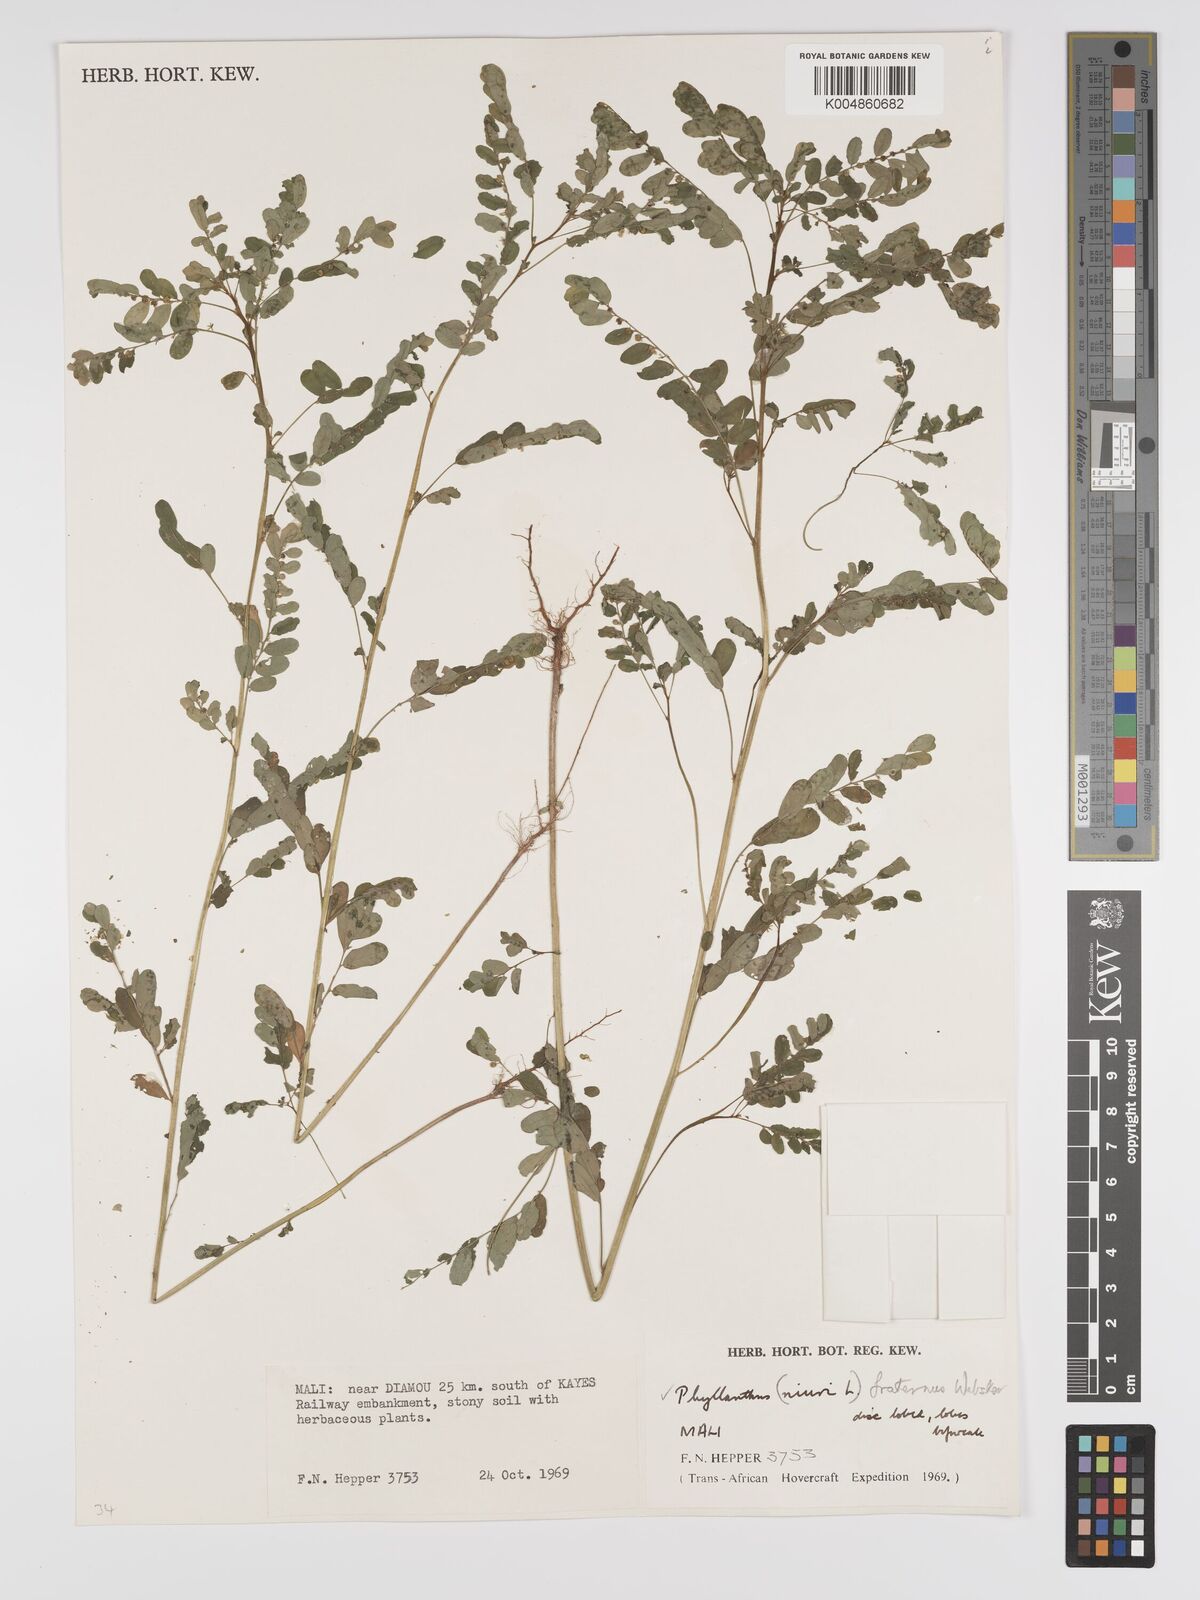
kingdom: Plantae
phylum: Tracheophyta
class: Magnoliopsida
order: Malpighiales
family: Phyllanthaceae
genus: Phyllanthus
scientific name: Phyllanthus fraternus
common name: Gulf leaf-flower
